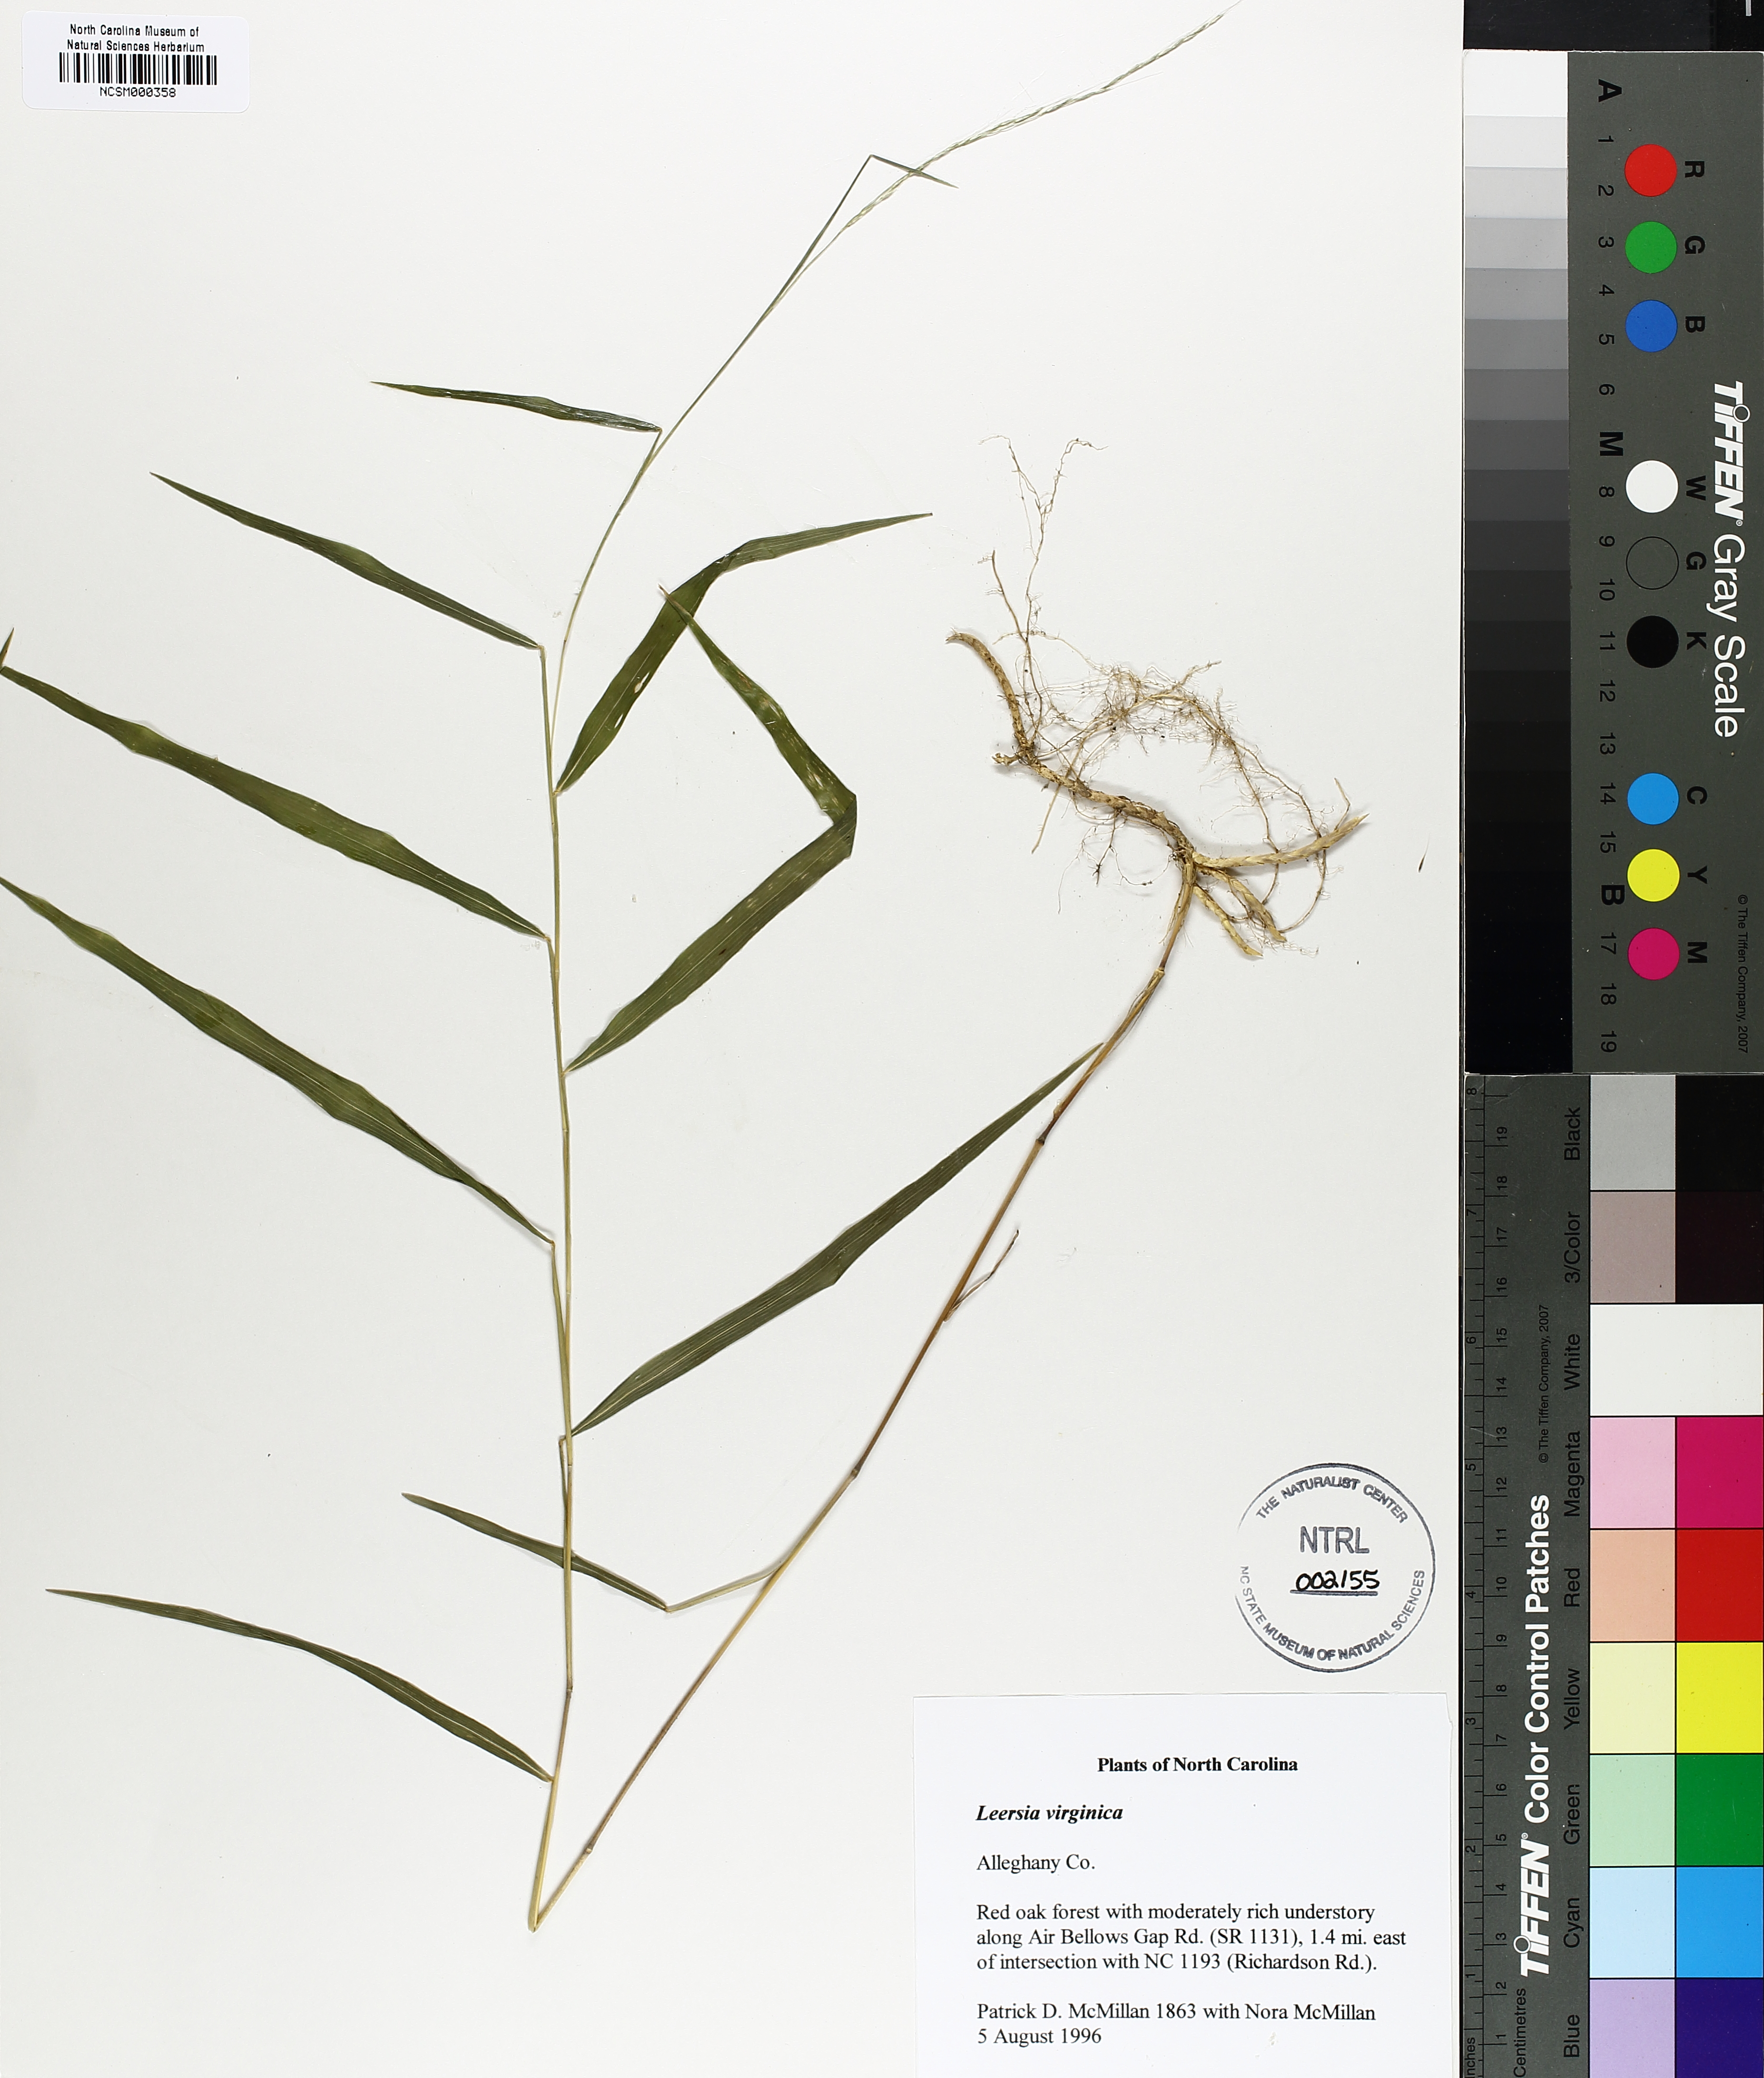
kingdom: Plantae
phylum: Tracheophyta
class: Liliopsida
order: Poales
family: Poaceae
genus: Leersia
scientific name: Leersia virginica
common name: White cutgrass
